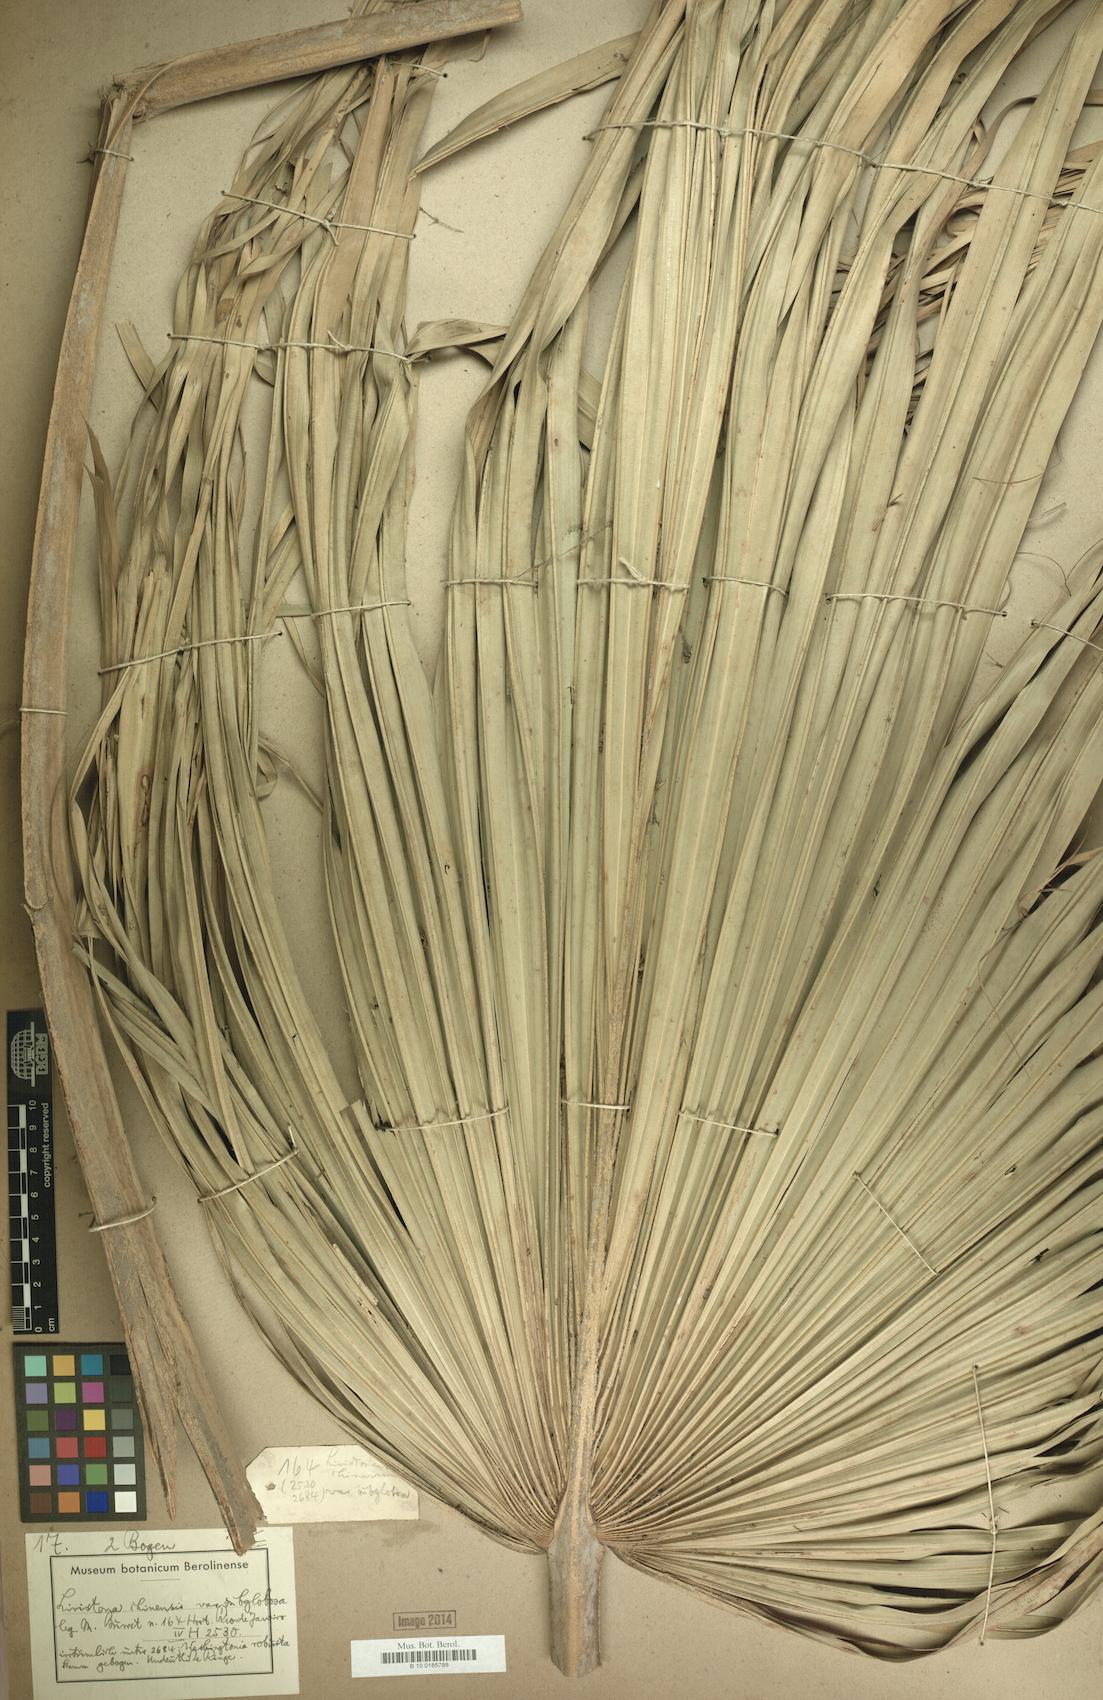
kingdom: Plantae
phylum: Tracheophyta
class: Liliopsida
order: Arecales
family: Arecaceae
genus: Livistona
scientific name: Livistona chinensis
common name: Fountain palm
